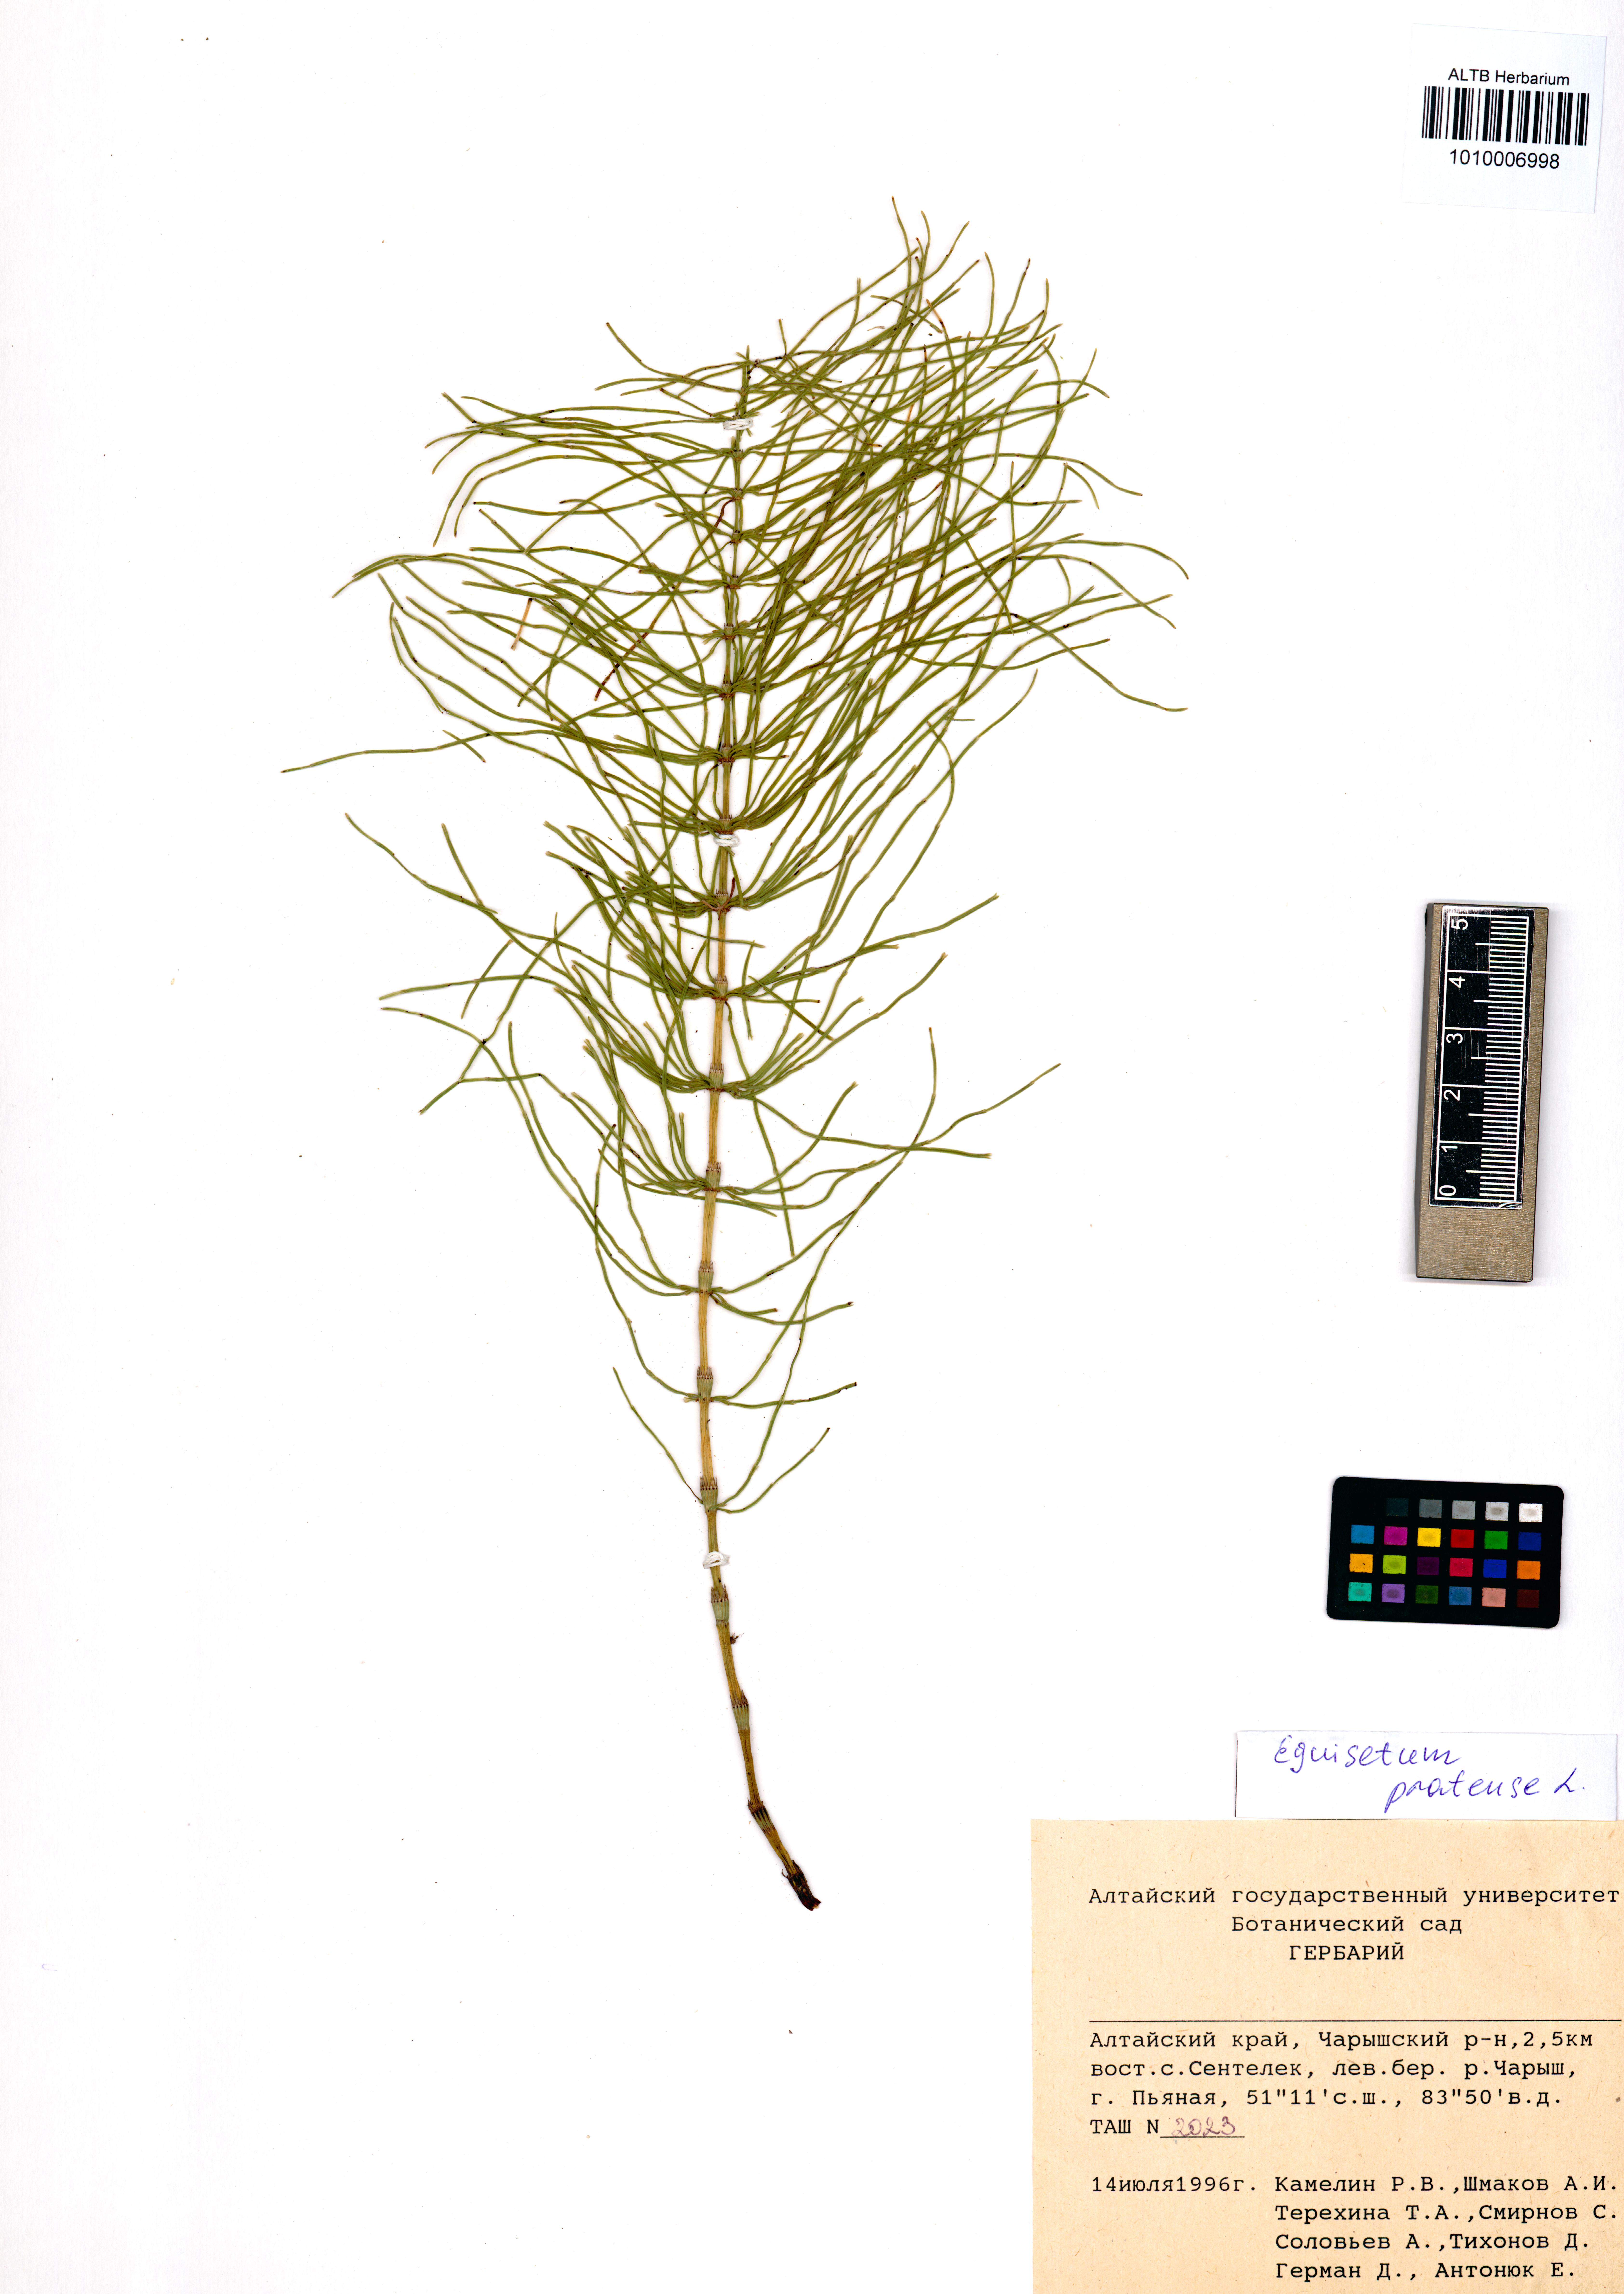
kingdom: Plantae
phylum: Tracheophyta
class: Polypodiopsida
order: Equisetales
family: Equisetaceae
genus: Equisetum
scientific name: Equisetum pratense
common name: Meadow horsetail
